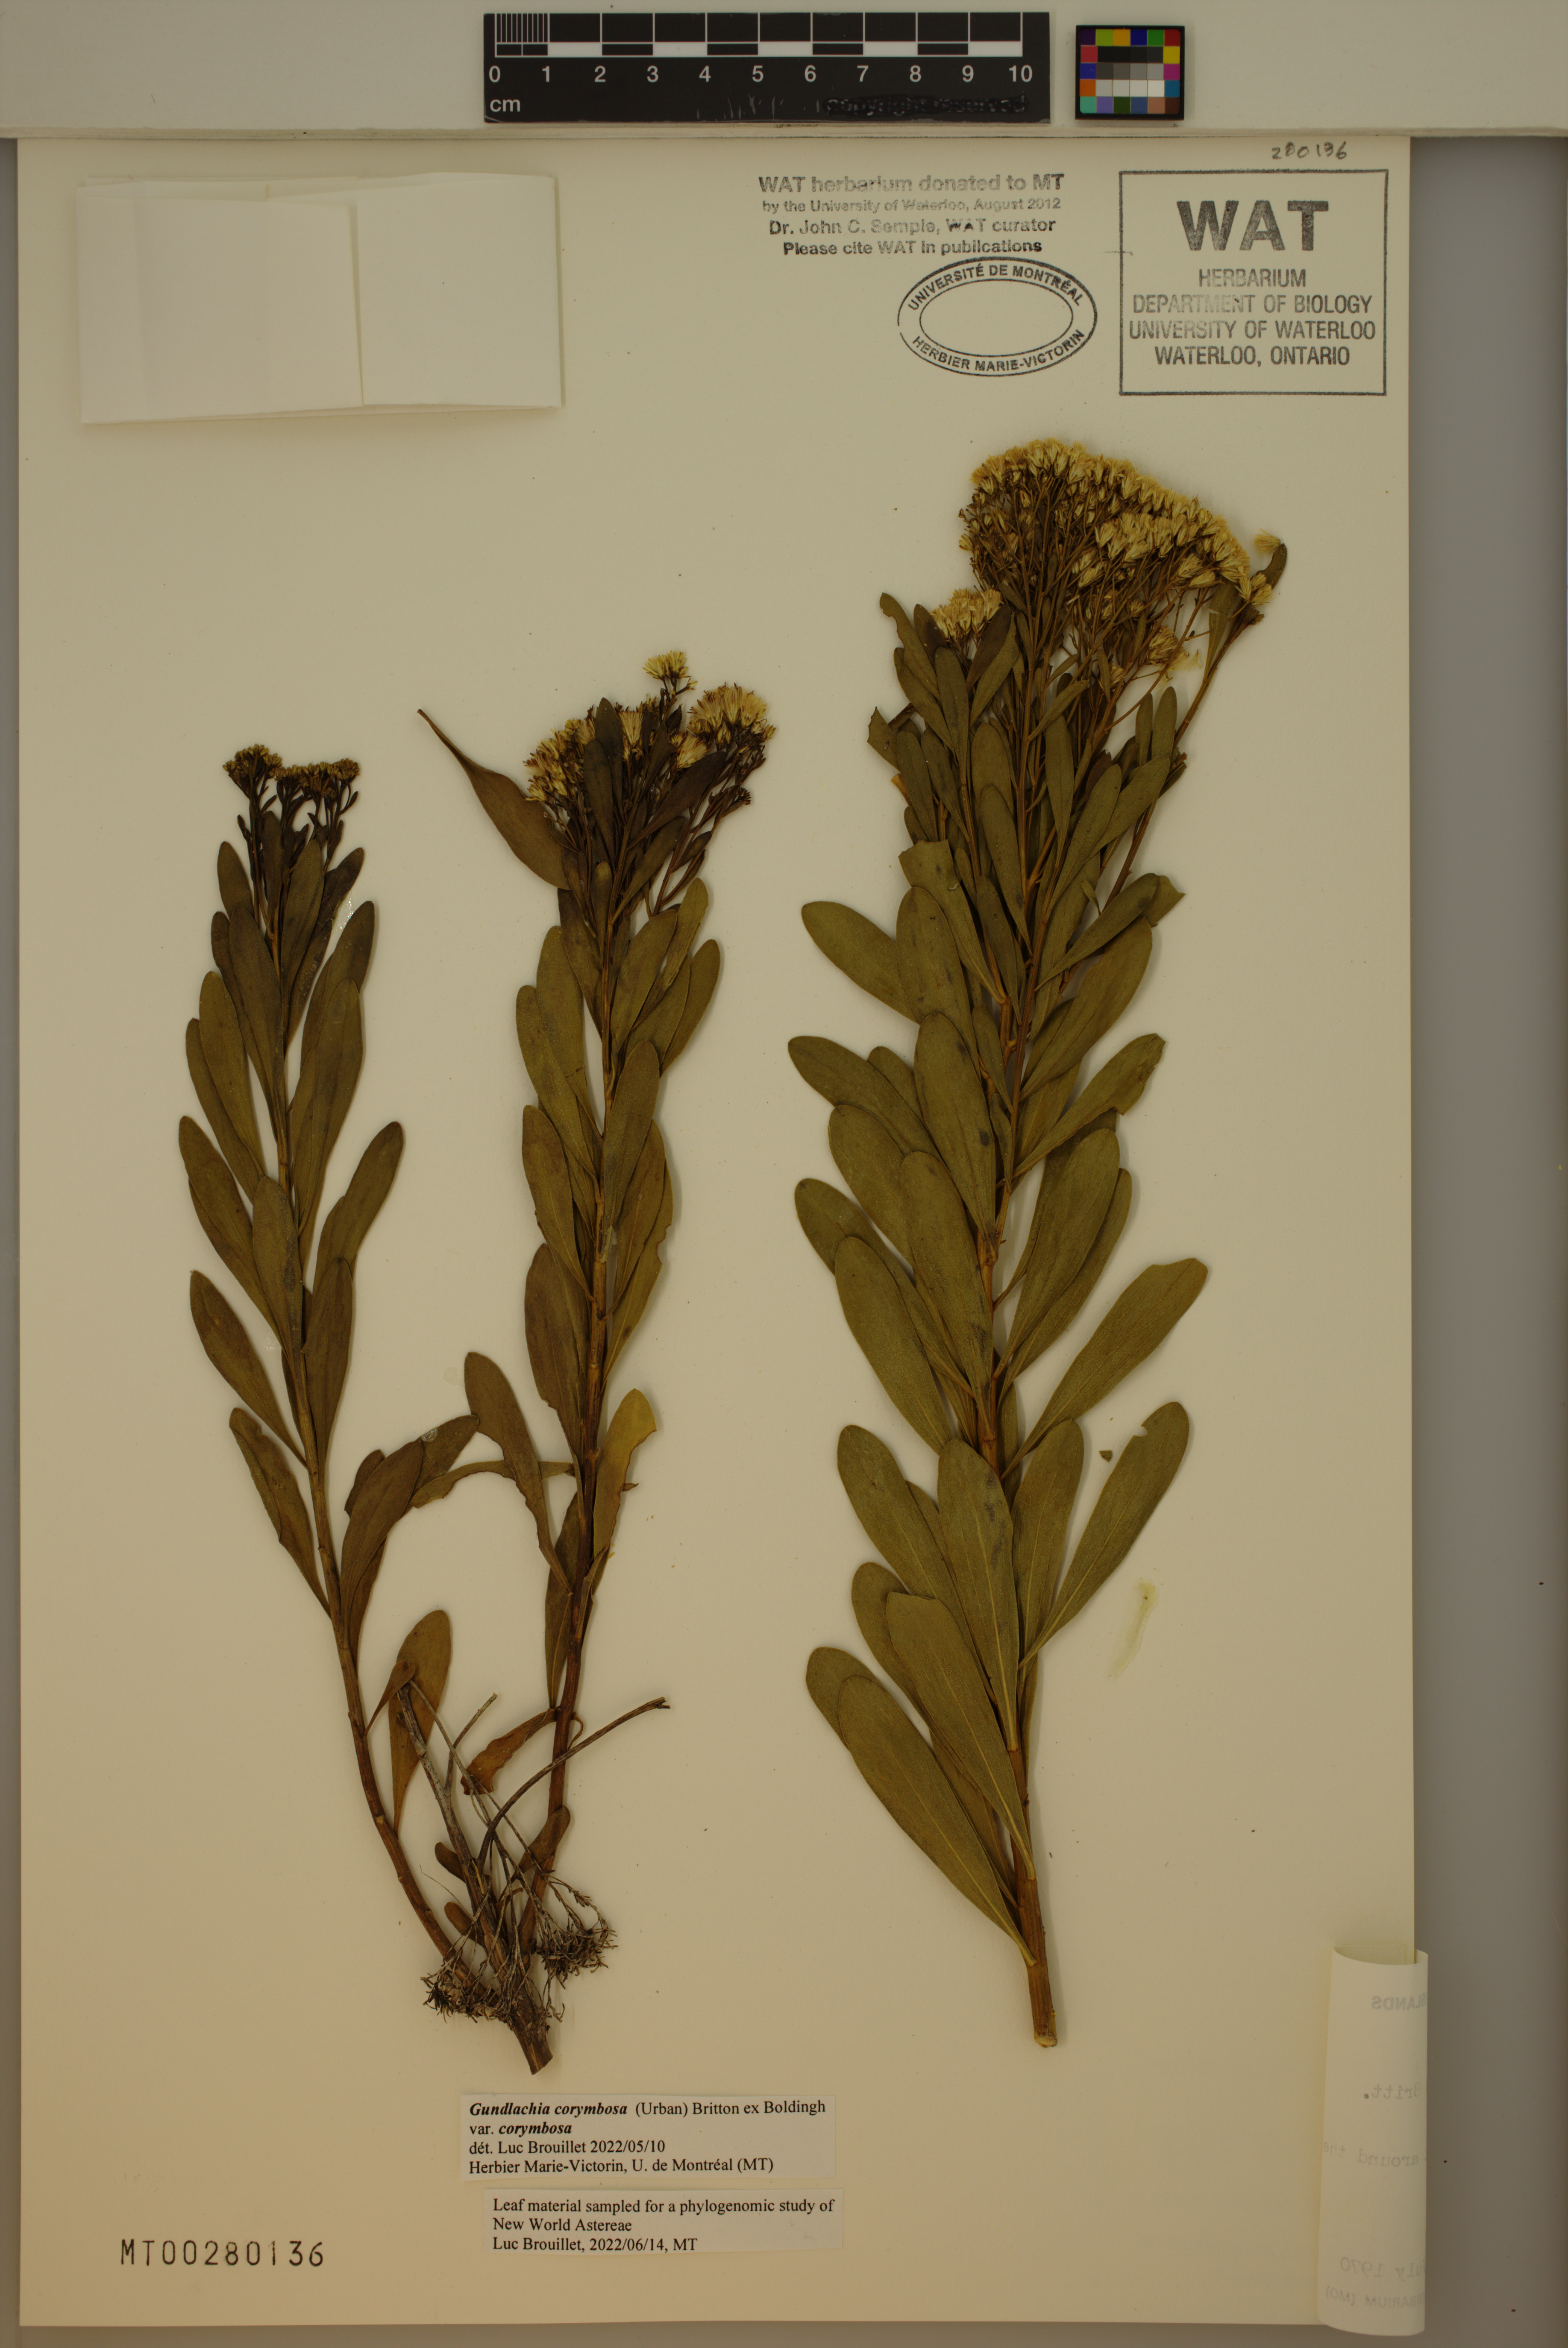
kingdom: Plantae
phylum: Tracheophyta
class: Magnoliopsida
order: Asterales
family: Asteraceae
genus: Gundlachia
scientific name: Gundlachia corymbosa
